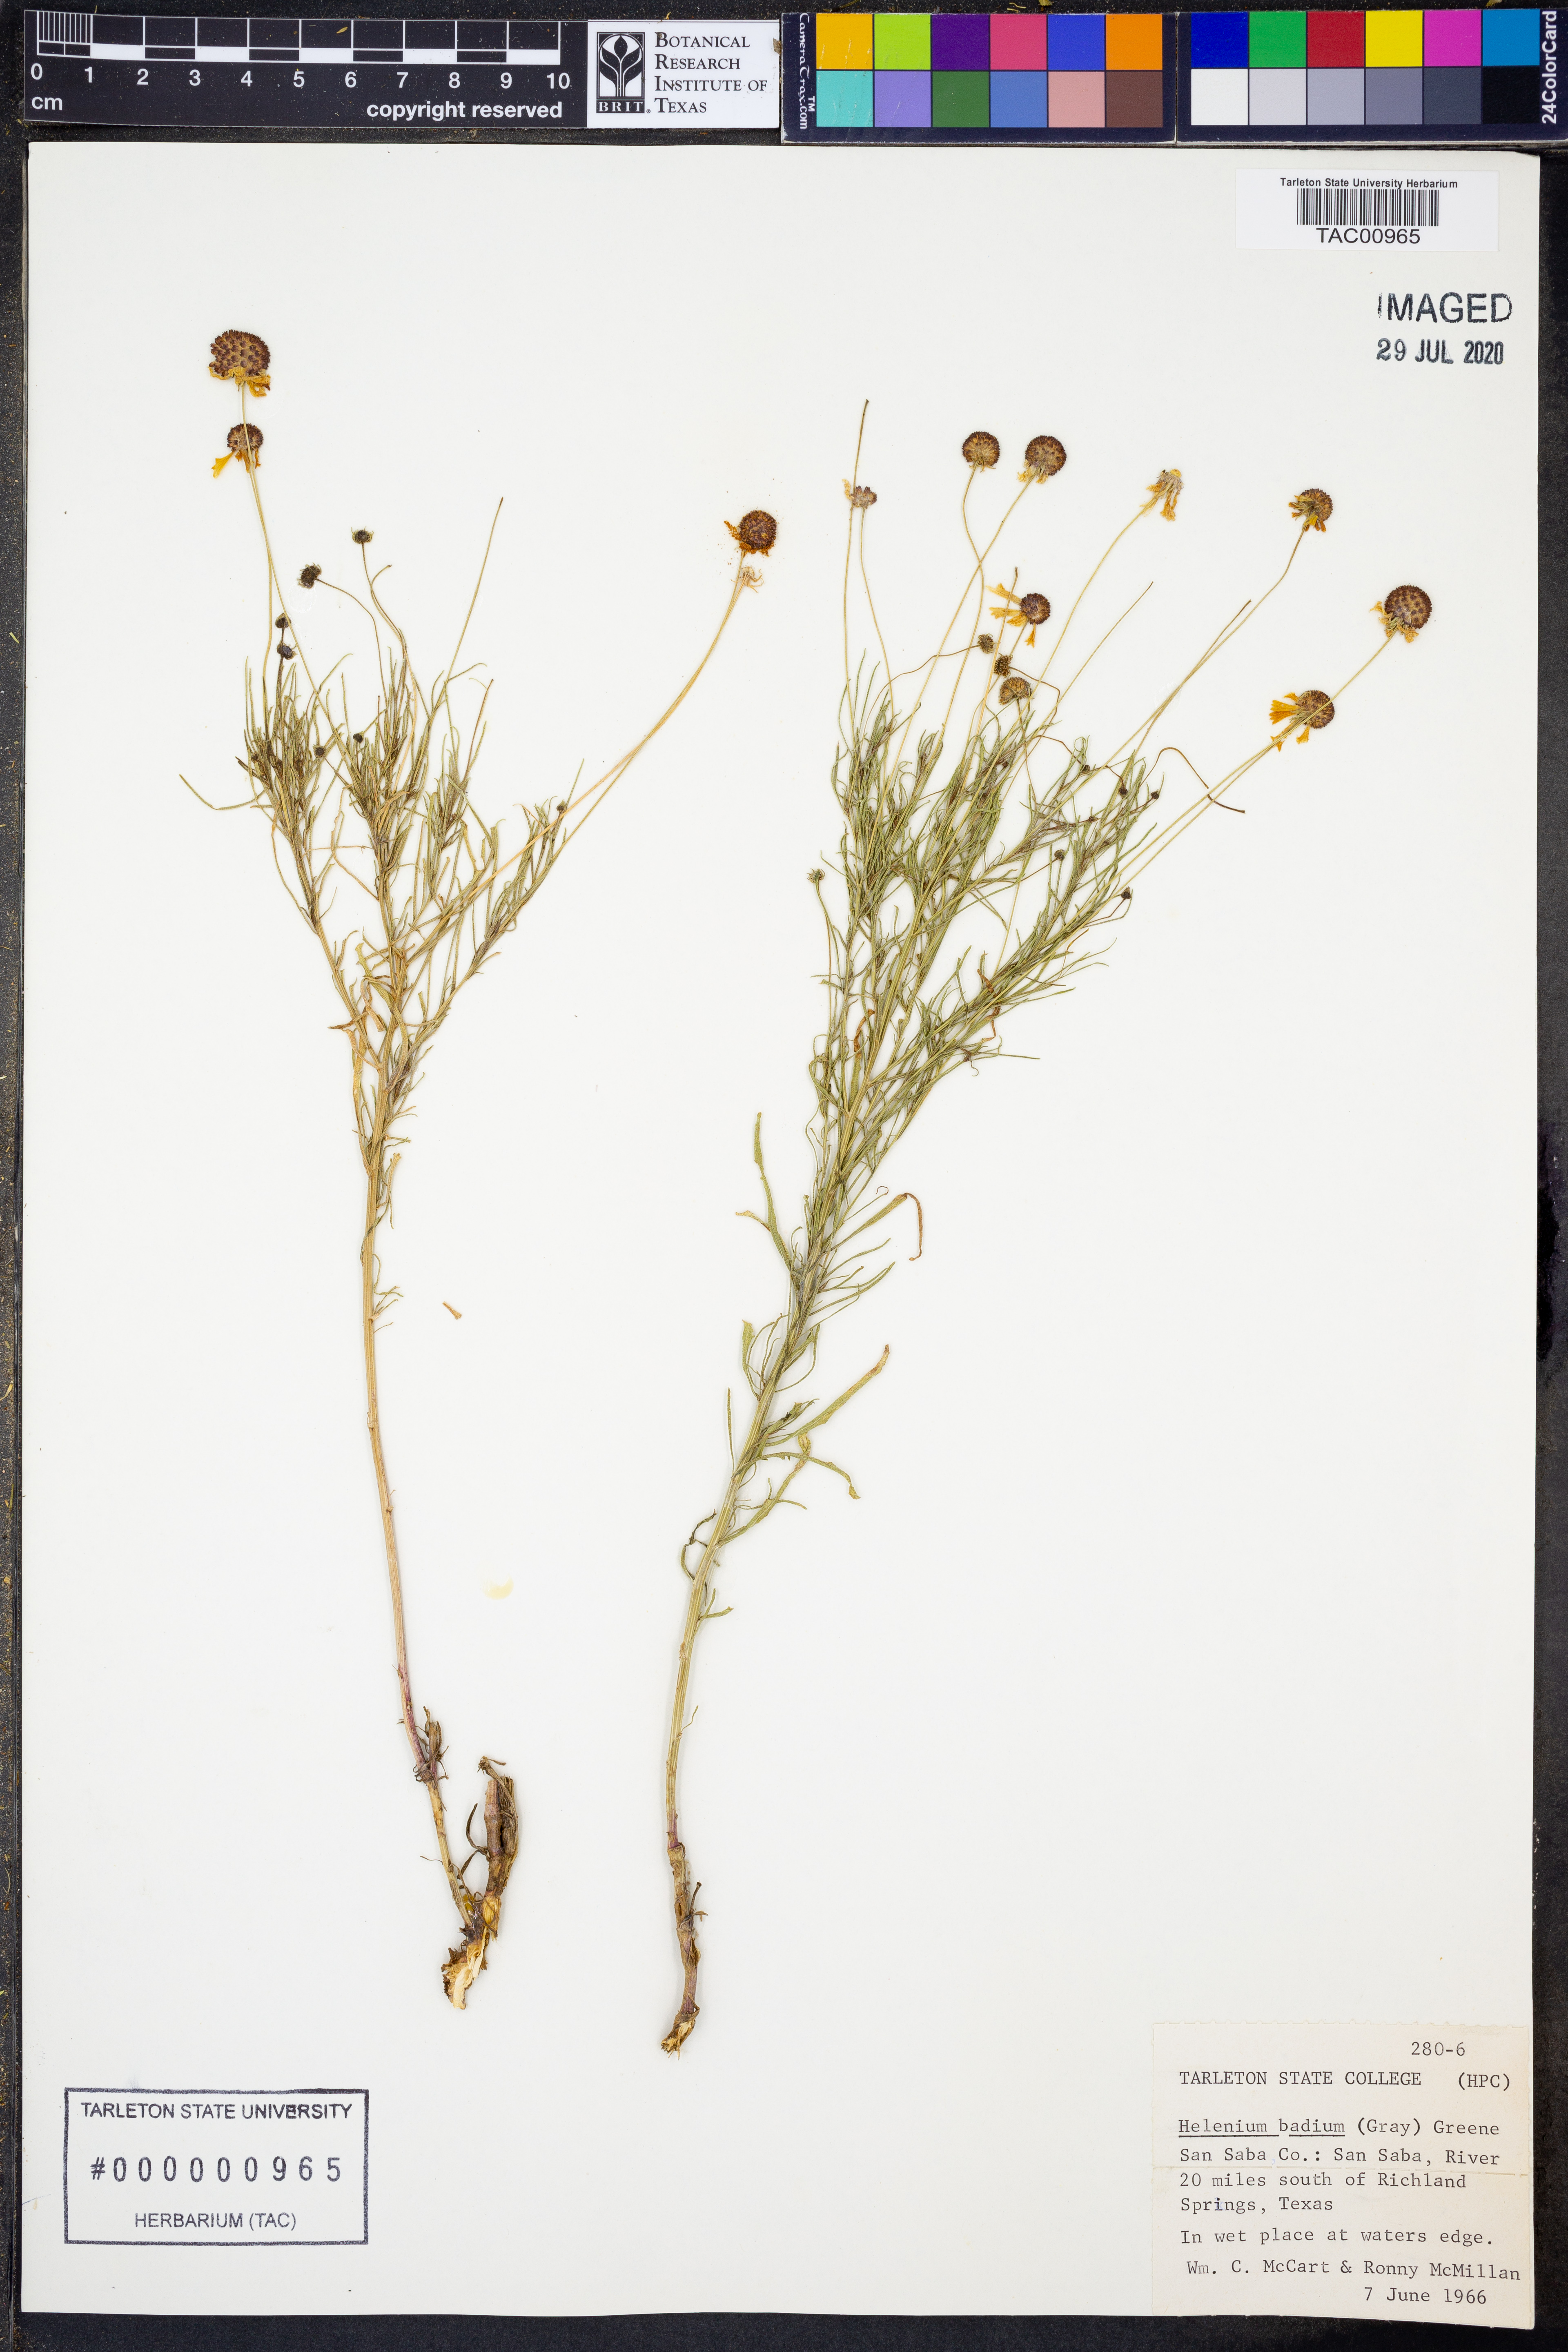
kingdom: Plantae
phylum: Tracheophyta
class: Magnoliopsida
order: Asterales
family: Asteraceae
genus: Helenium
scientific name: Helenium amarum
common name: Bitter sneezeweed
